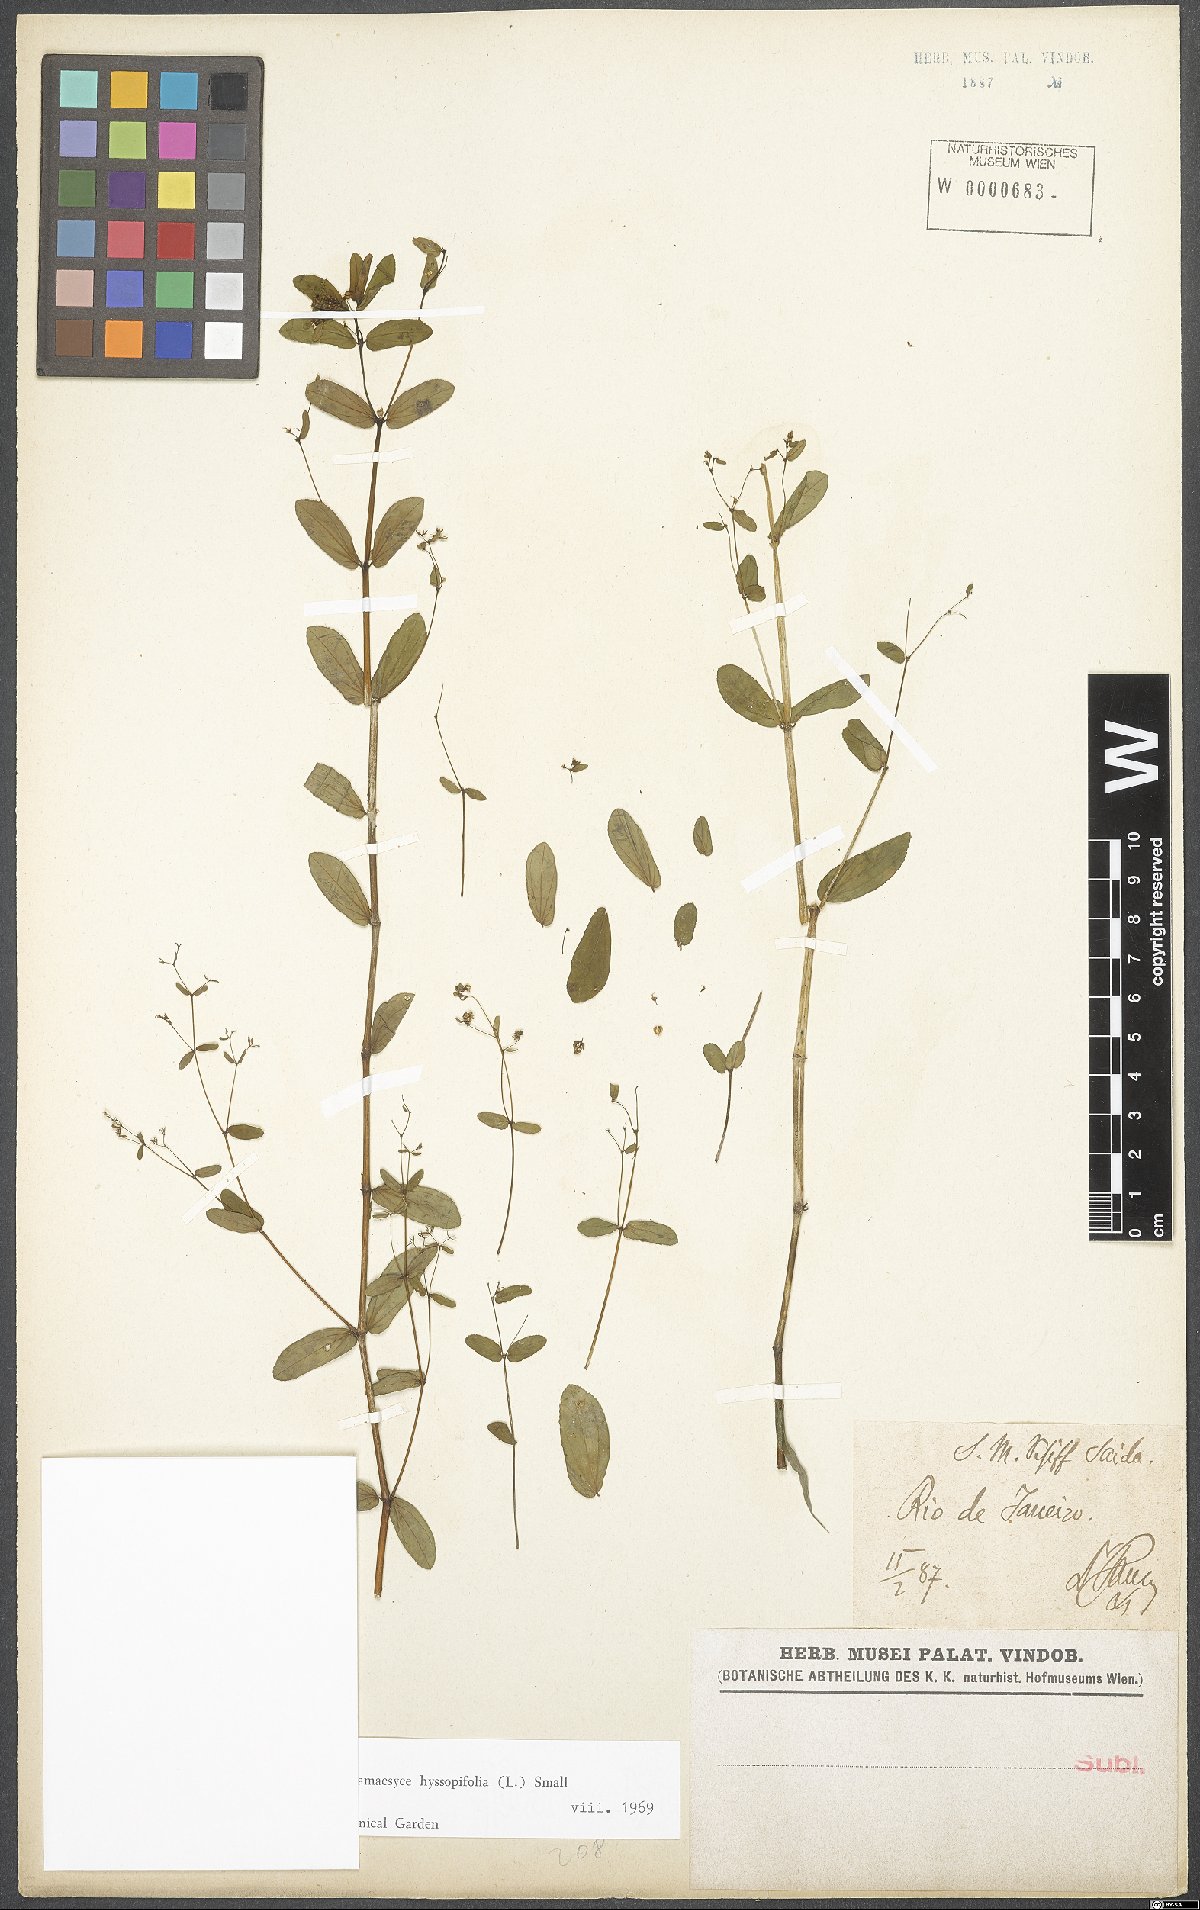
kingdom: Plantae
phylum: Tracheophyta
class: Magnoliopsida
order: Malpighiales
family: Euphorbiaceae
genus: Euphorbia
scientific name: Euphorbia hyssopifolia
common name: Hyssopleaf sandmat
